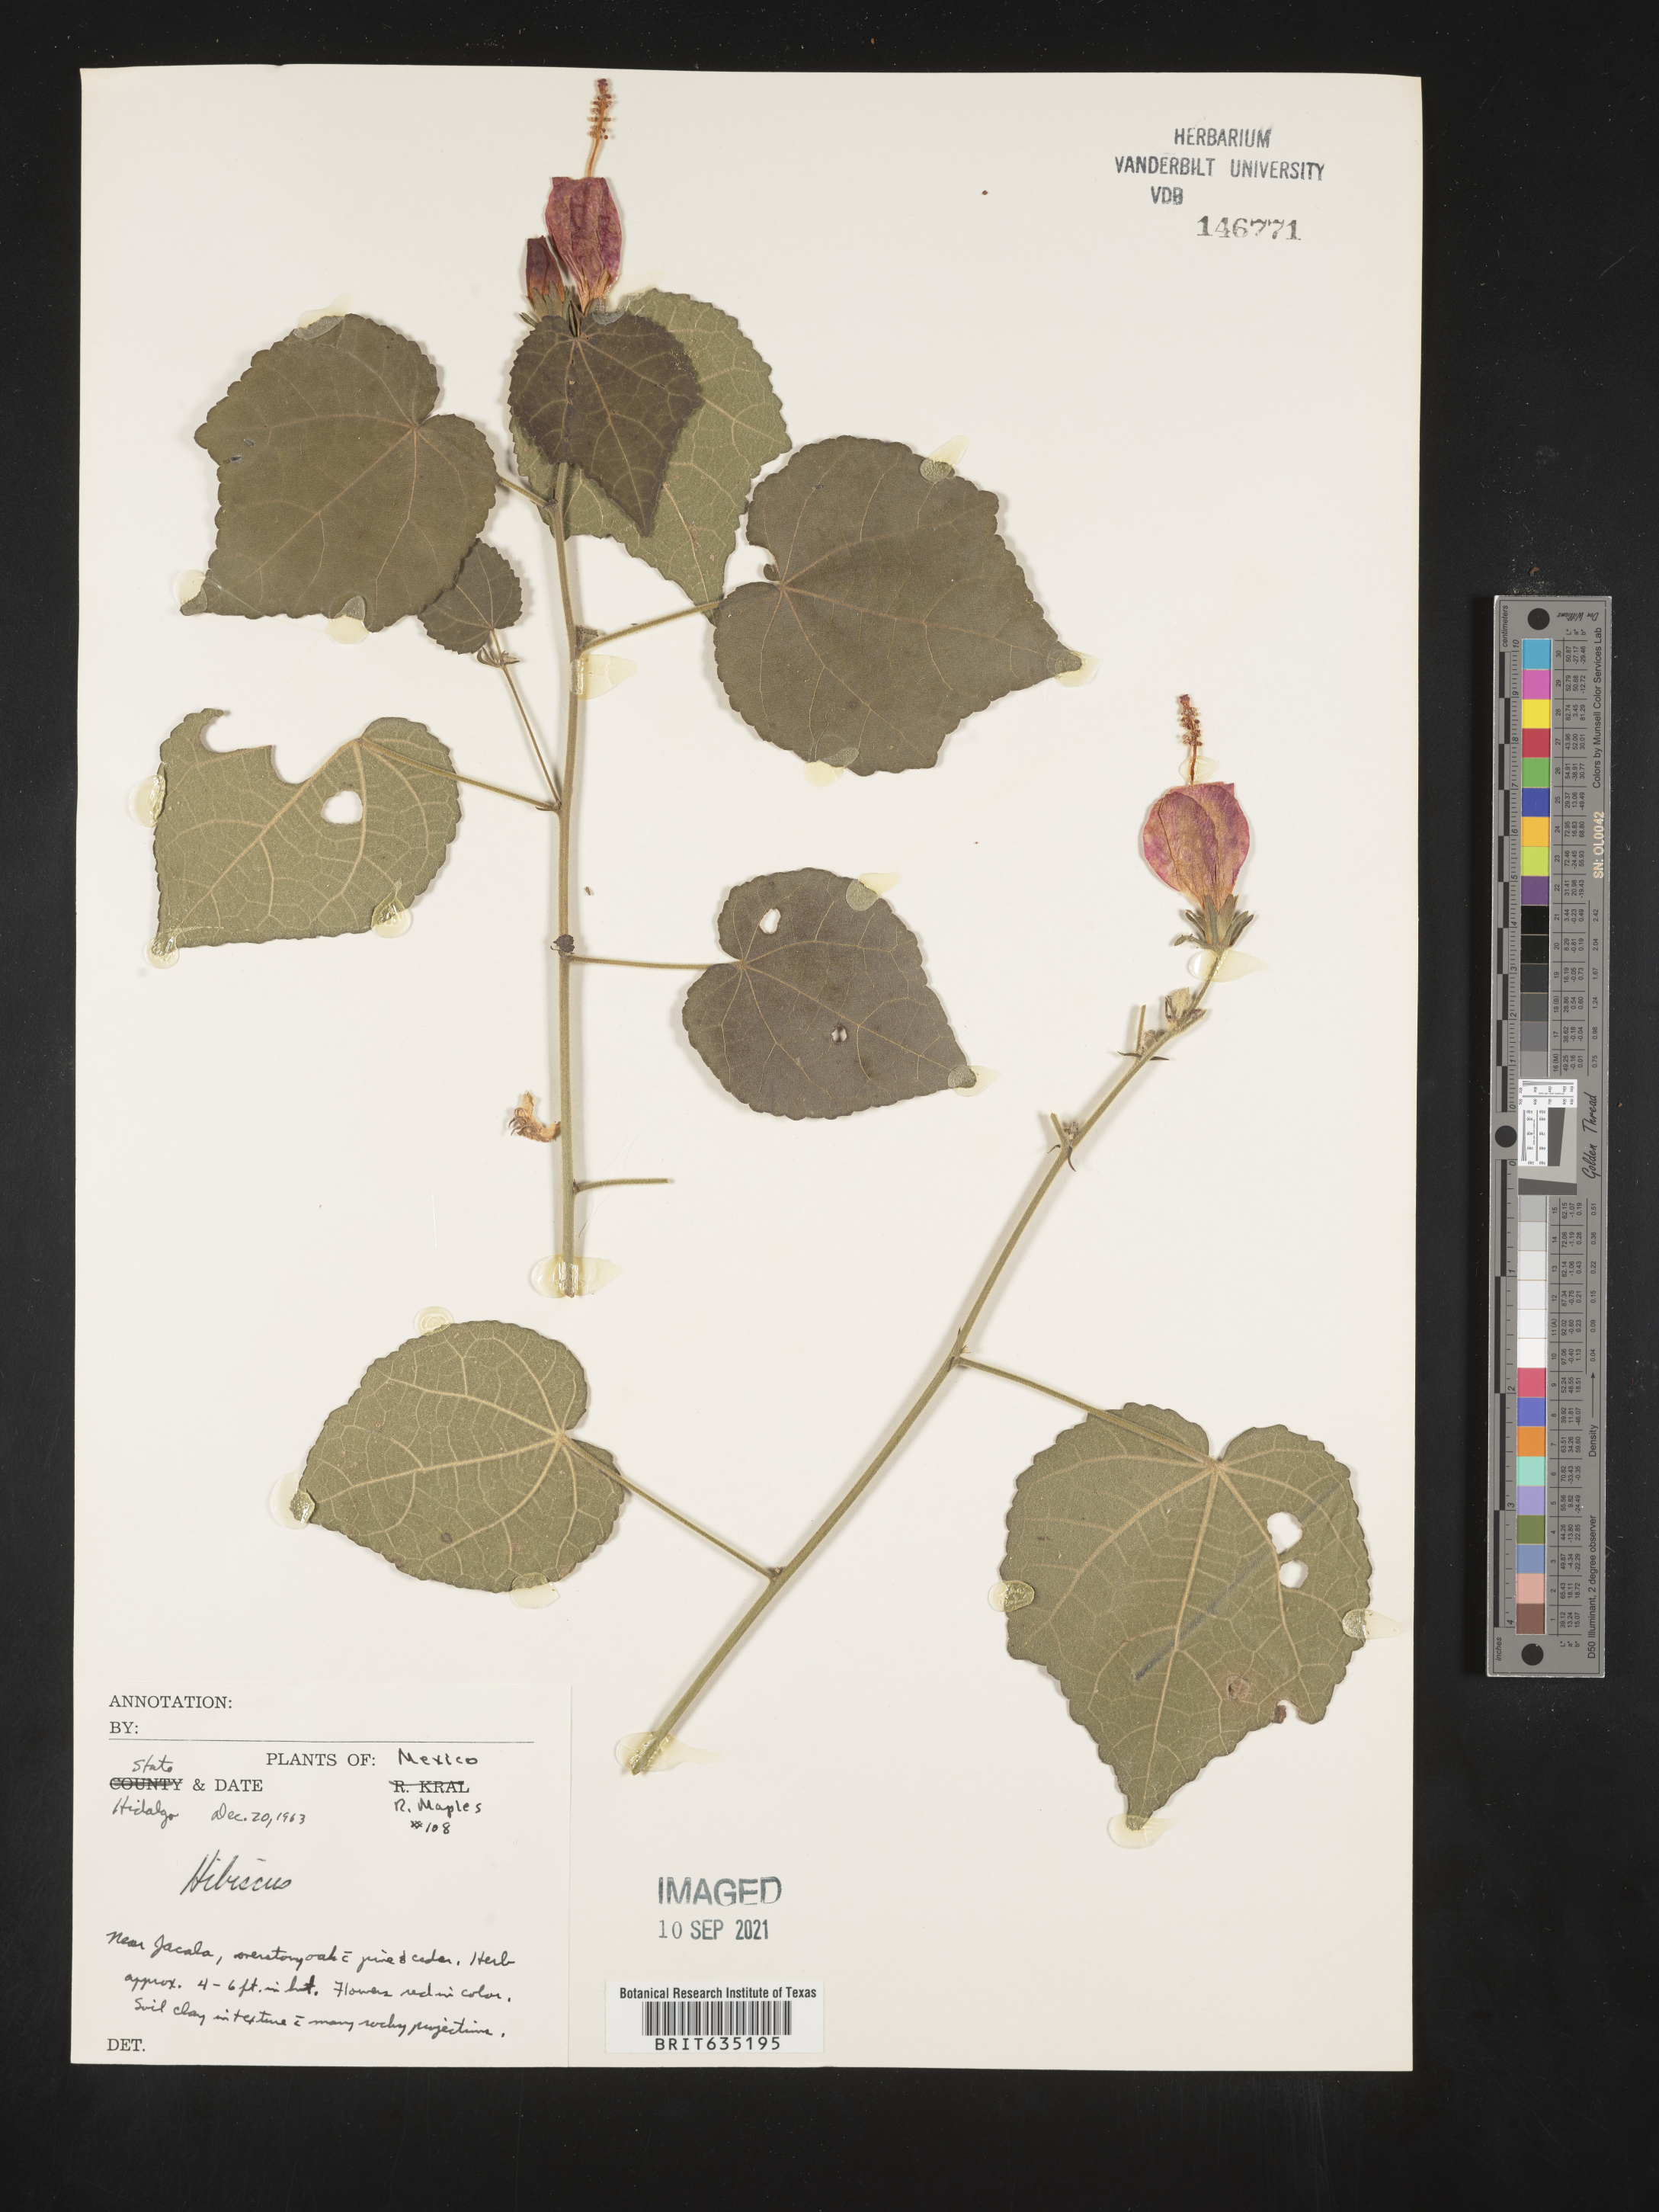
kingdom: Plantae
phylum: Tracheophyta
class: Magnoliopsida
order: Malvales
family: Malvaceae
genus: Hibiscus
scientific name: Hibiscus
